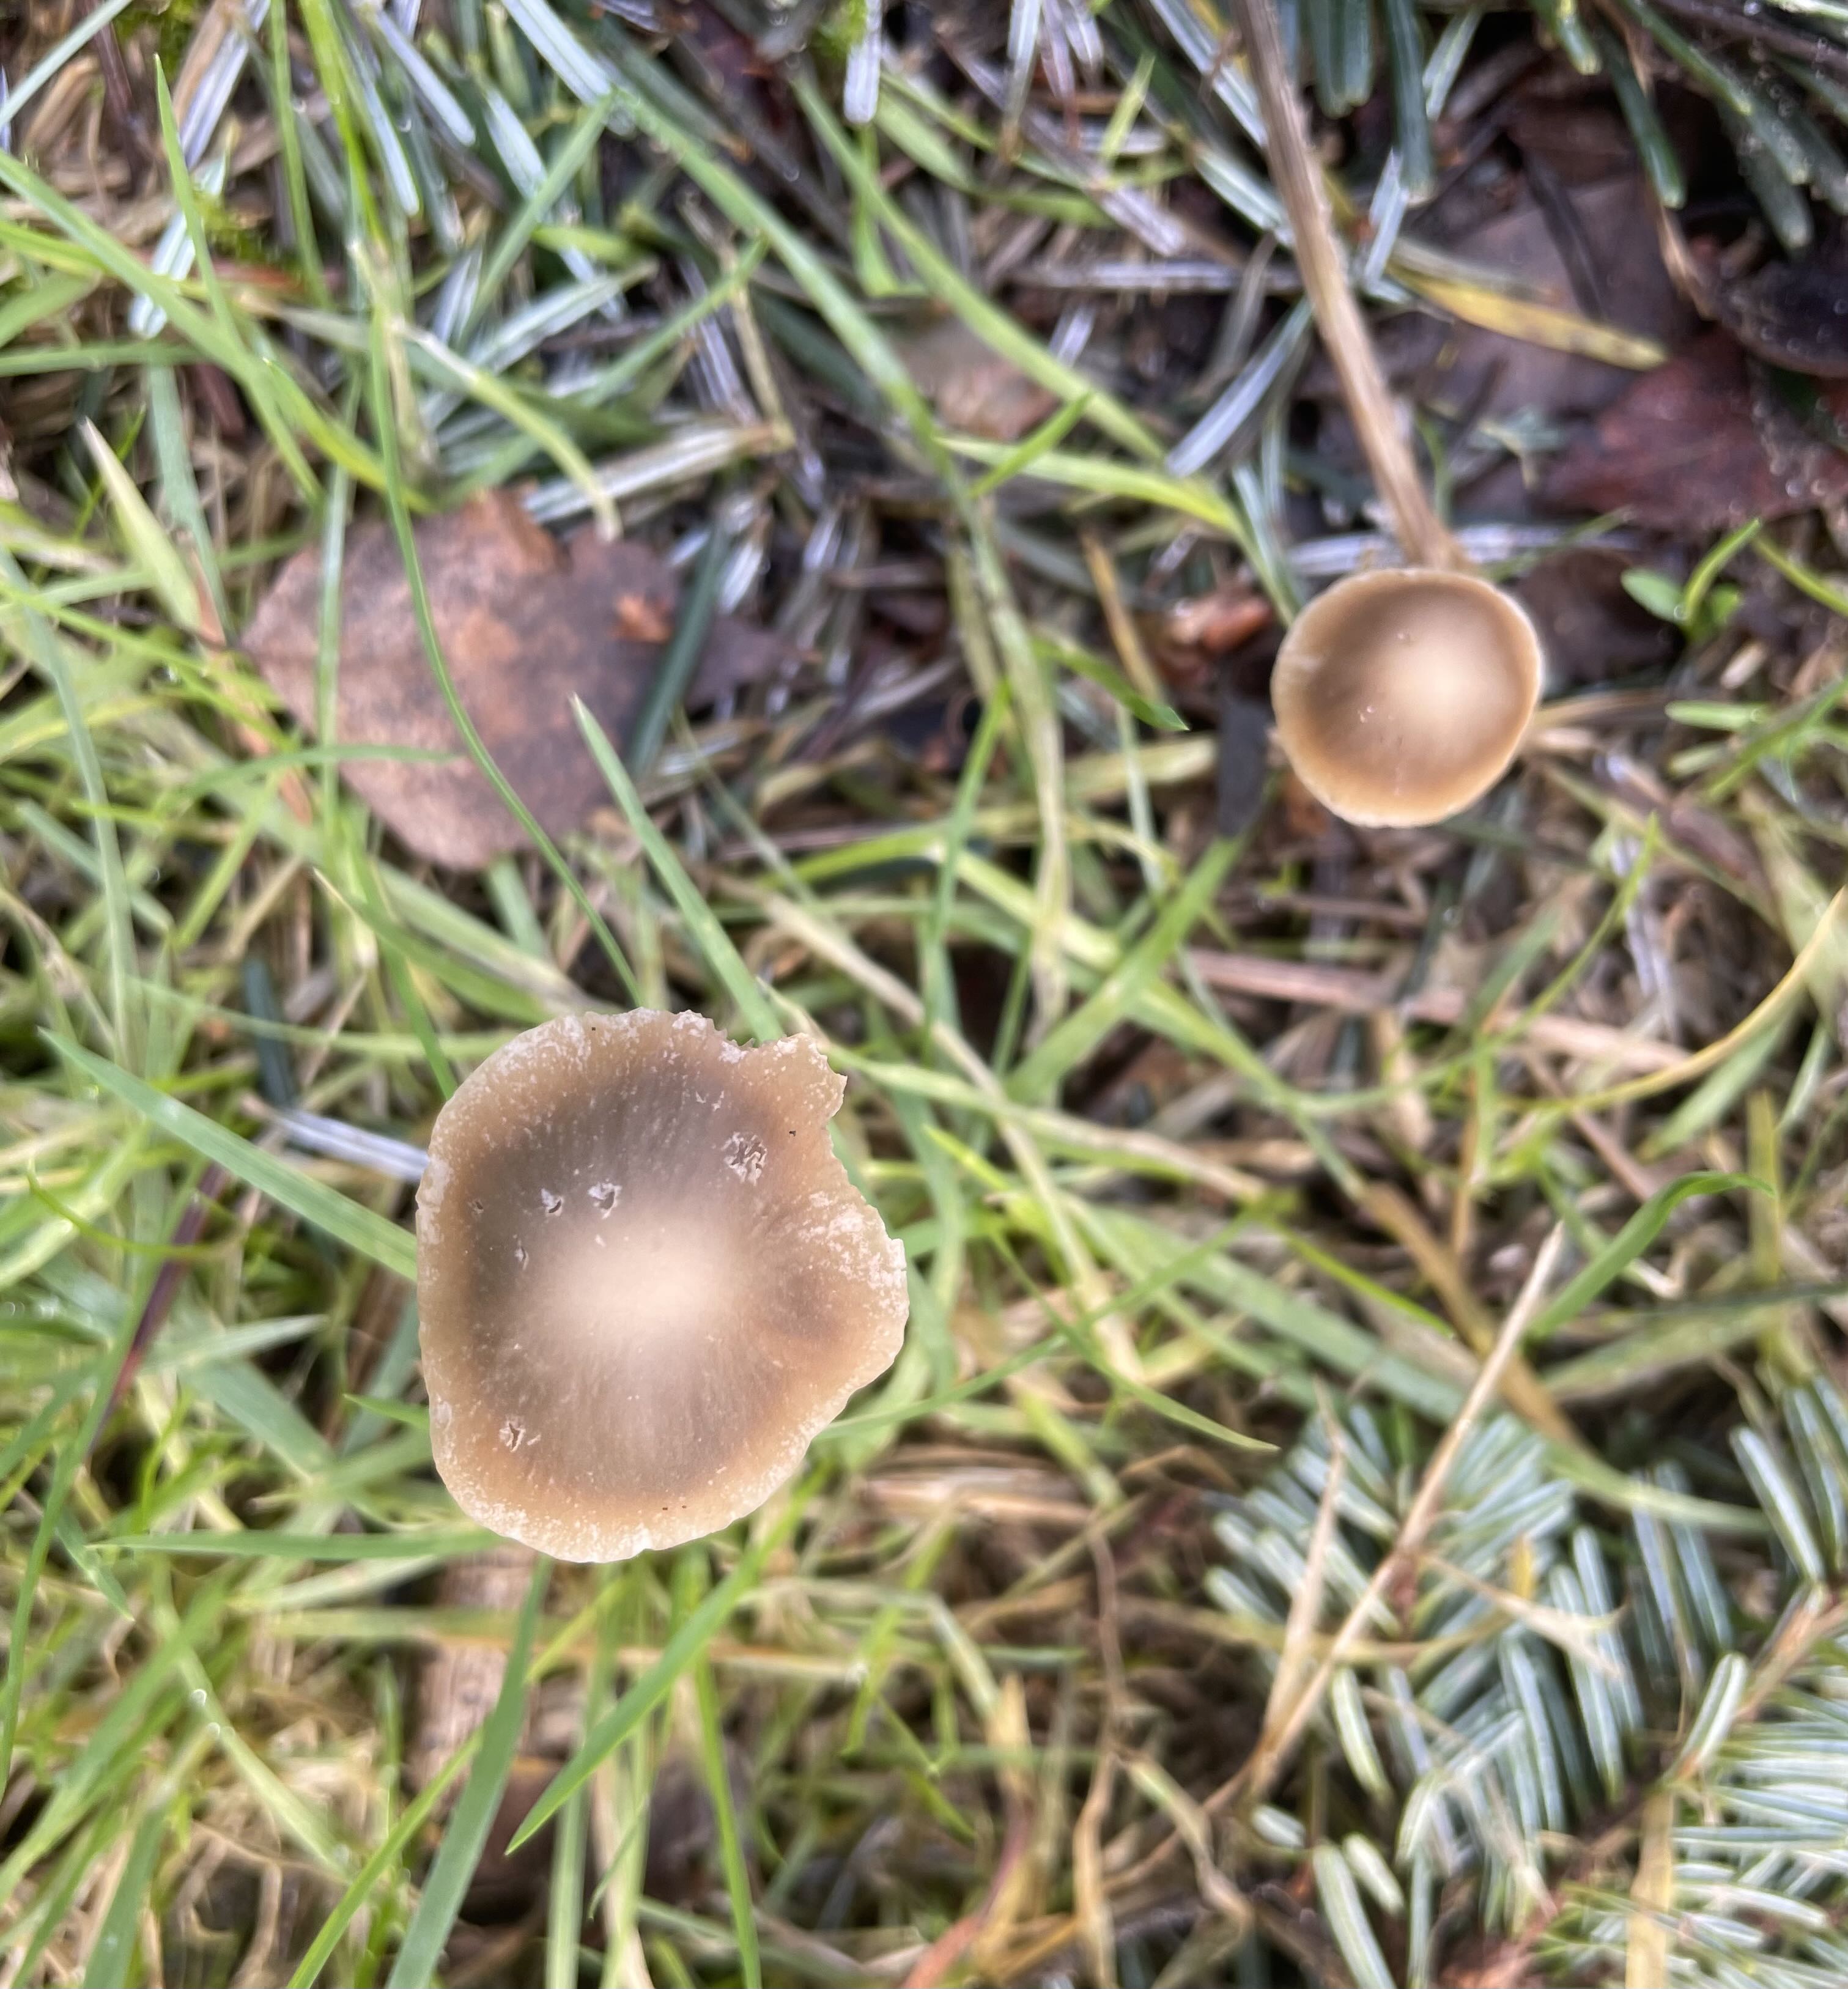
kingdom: Fungi
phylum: Basidiomycota
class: Agaricomycetes
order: Agaricales
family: Psathyrellaceae
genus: Psathyrella
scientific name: Psathyrella
